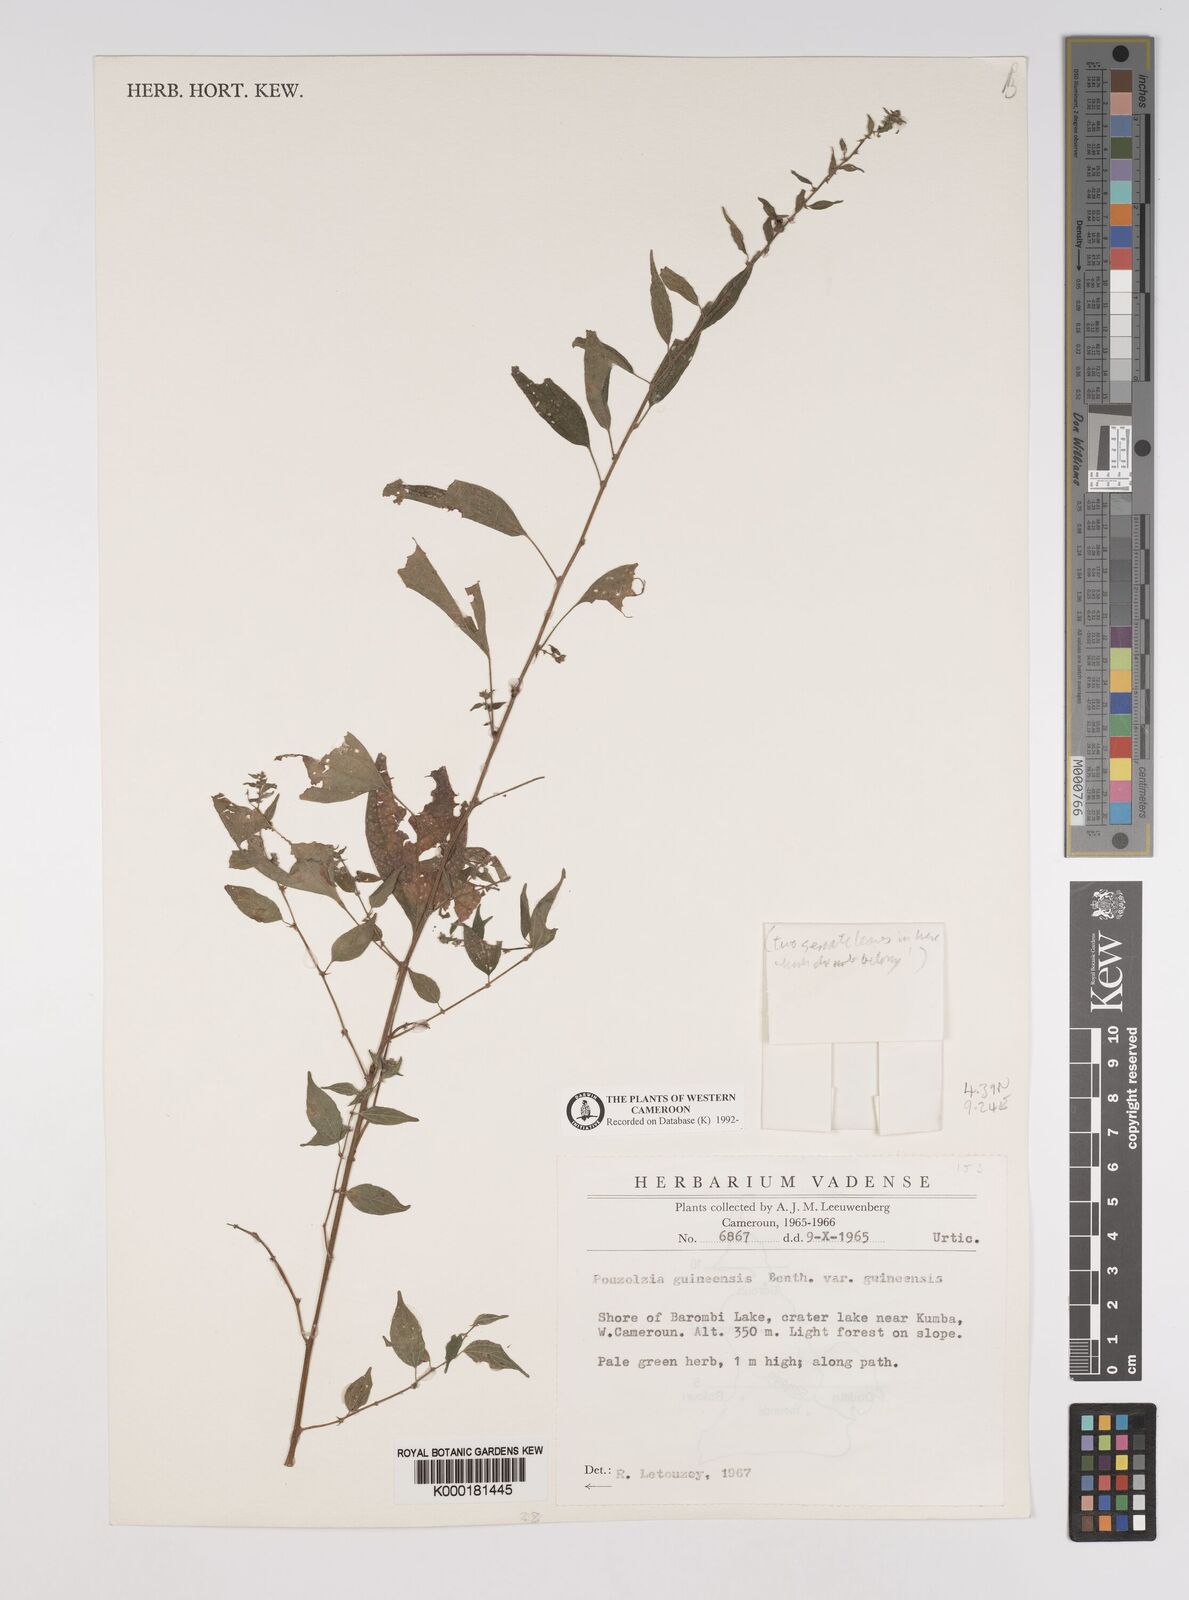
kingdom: Plantae
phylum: Tracheophyta
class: Magnoliopsida
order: Rosales
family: Urticaceae
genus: Pouzolzia
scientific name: Pouzolzia guineensis
